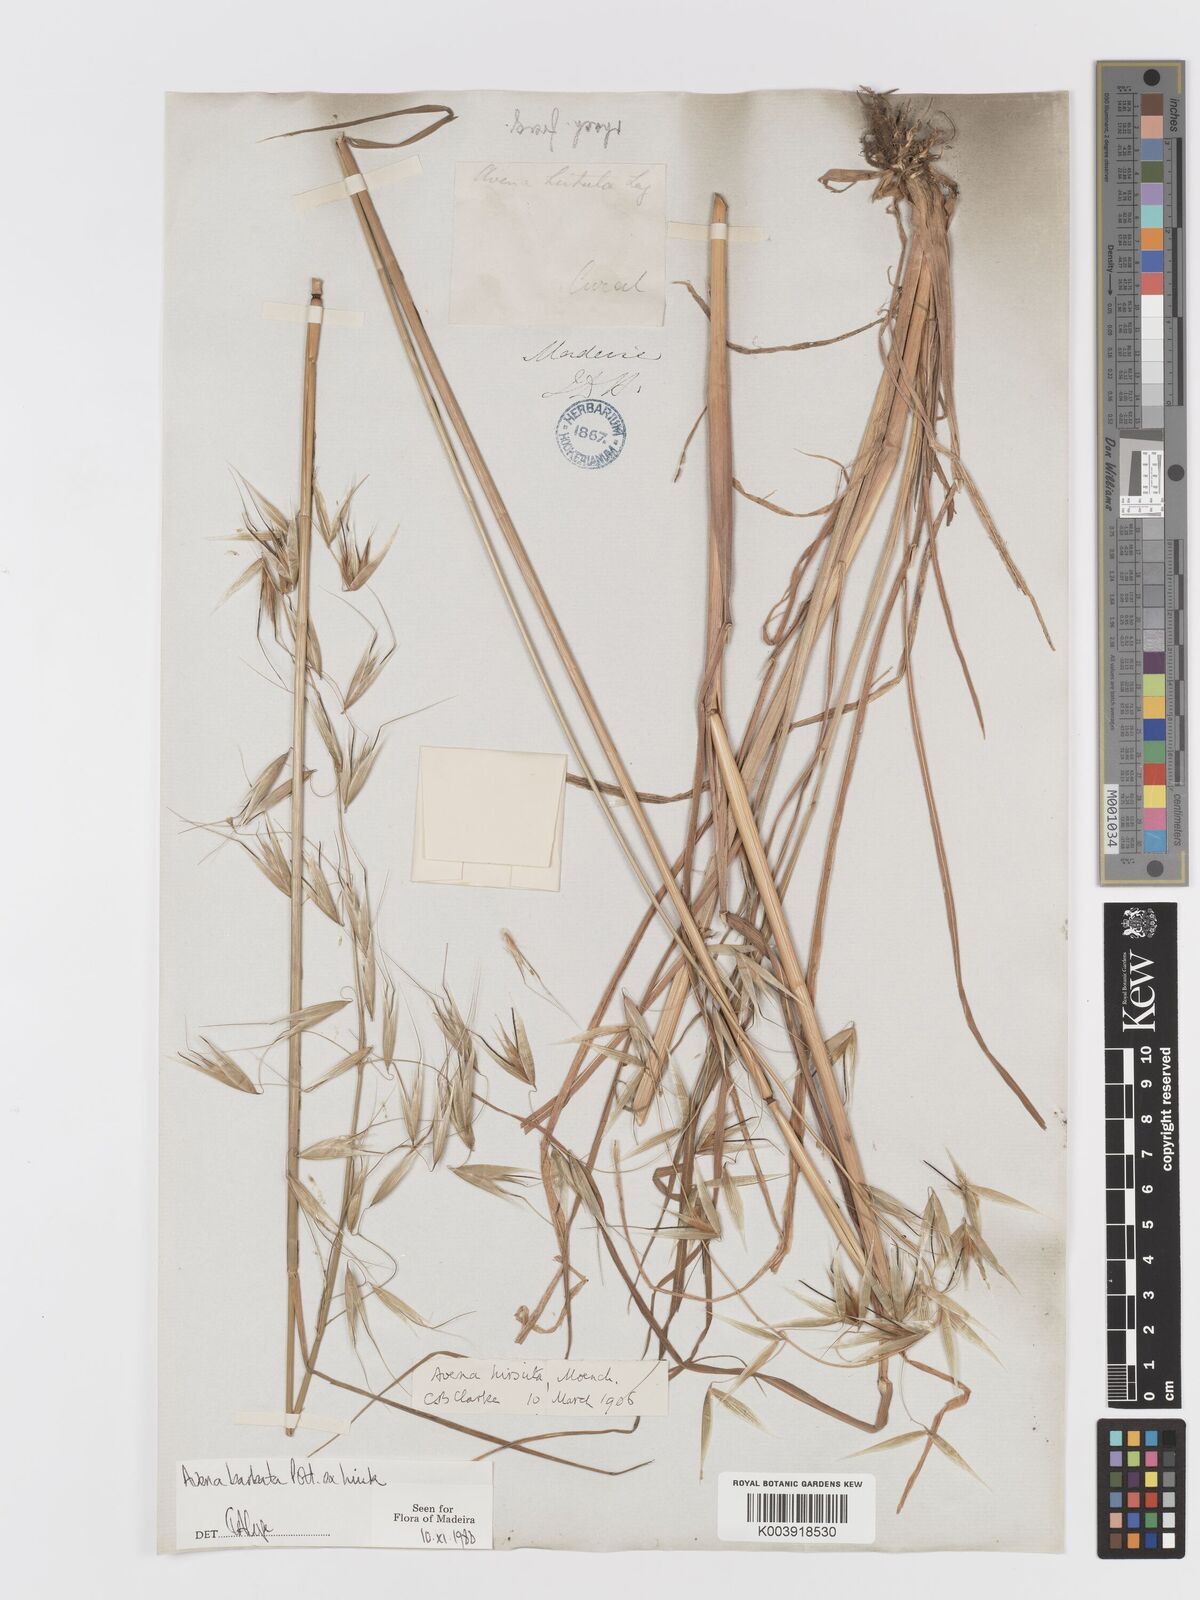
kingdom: Plantae
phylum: Tracheophyta
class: Liliopsida
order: Poales
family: Poaceae
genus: Avena
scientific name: Avena
